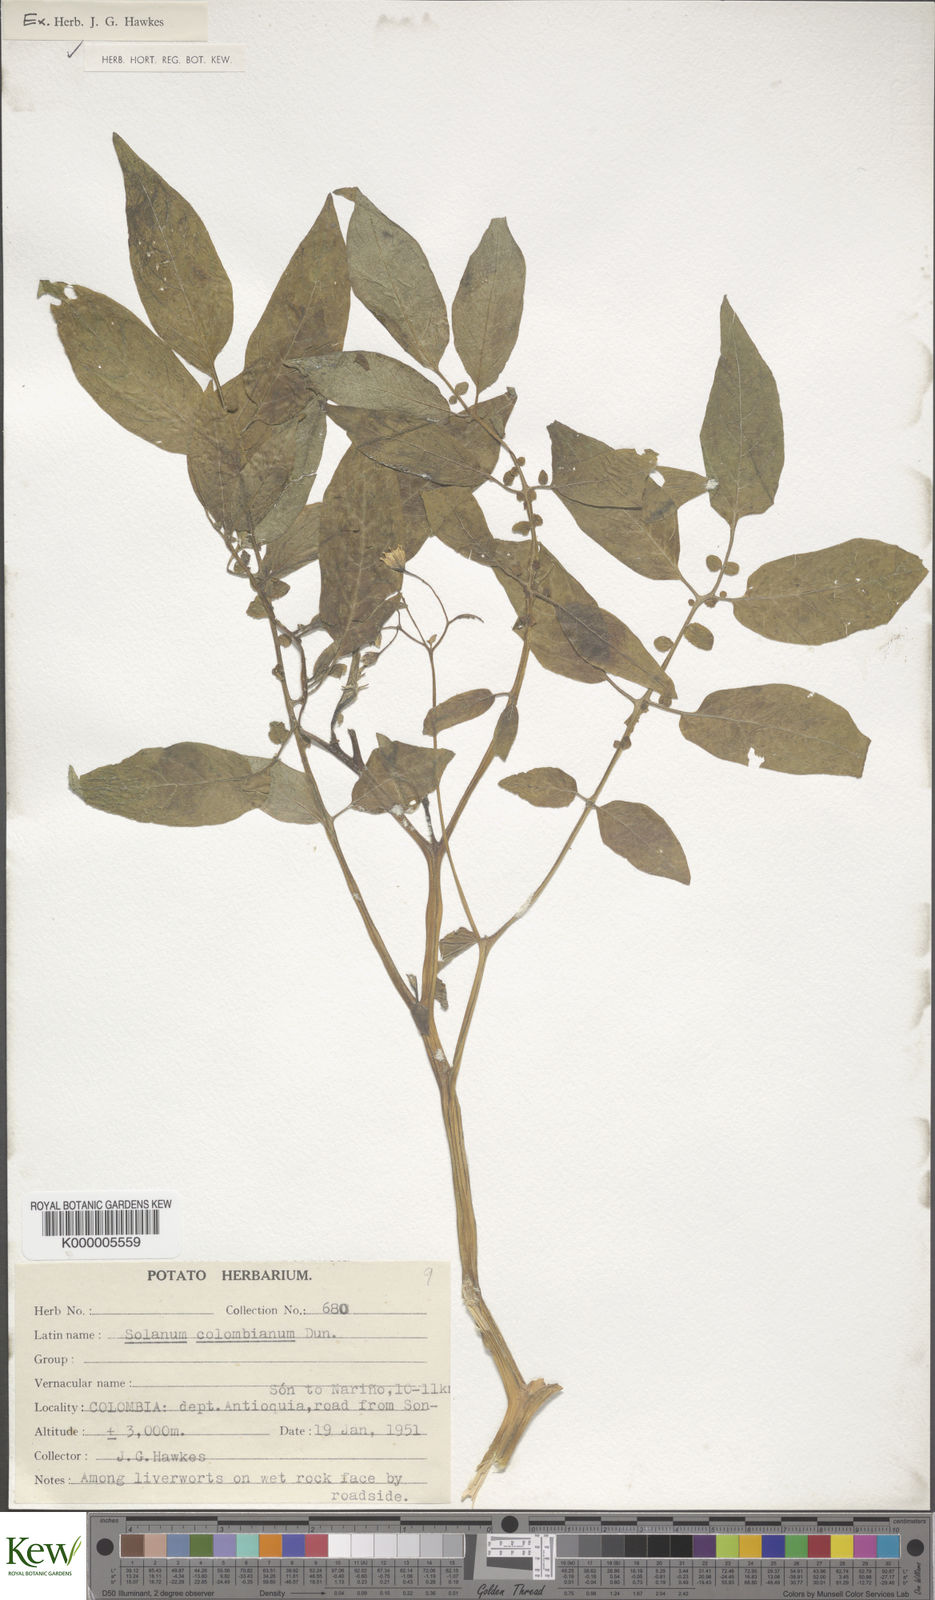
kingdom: Plantae
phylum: Tracheophyta
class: Magnoliopsida
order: Solanales
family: Solanaceae
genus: Solanum
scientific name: Solanum colombianum
